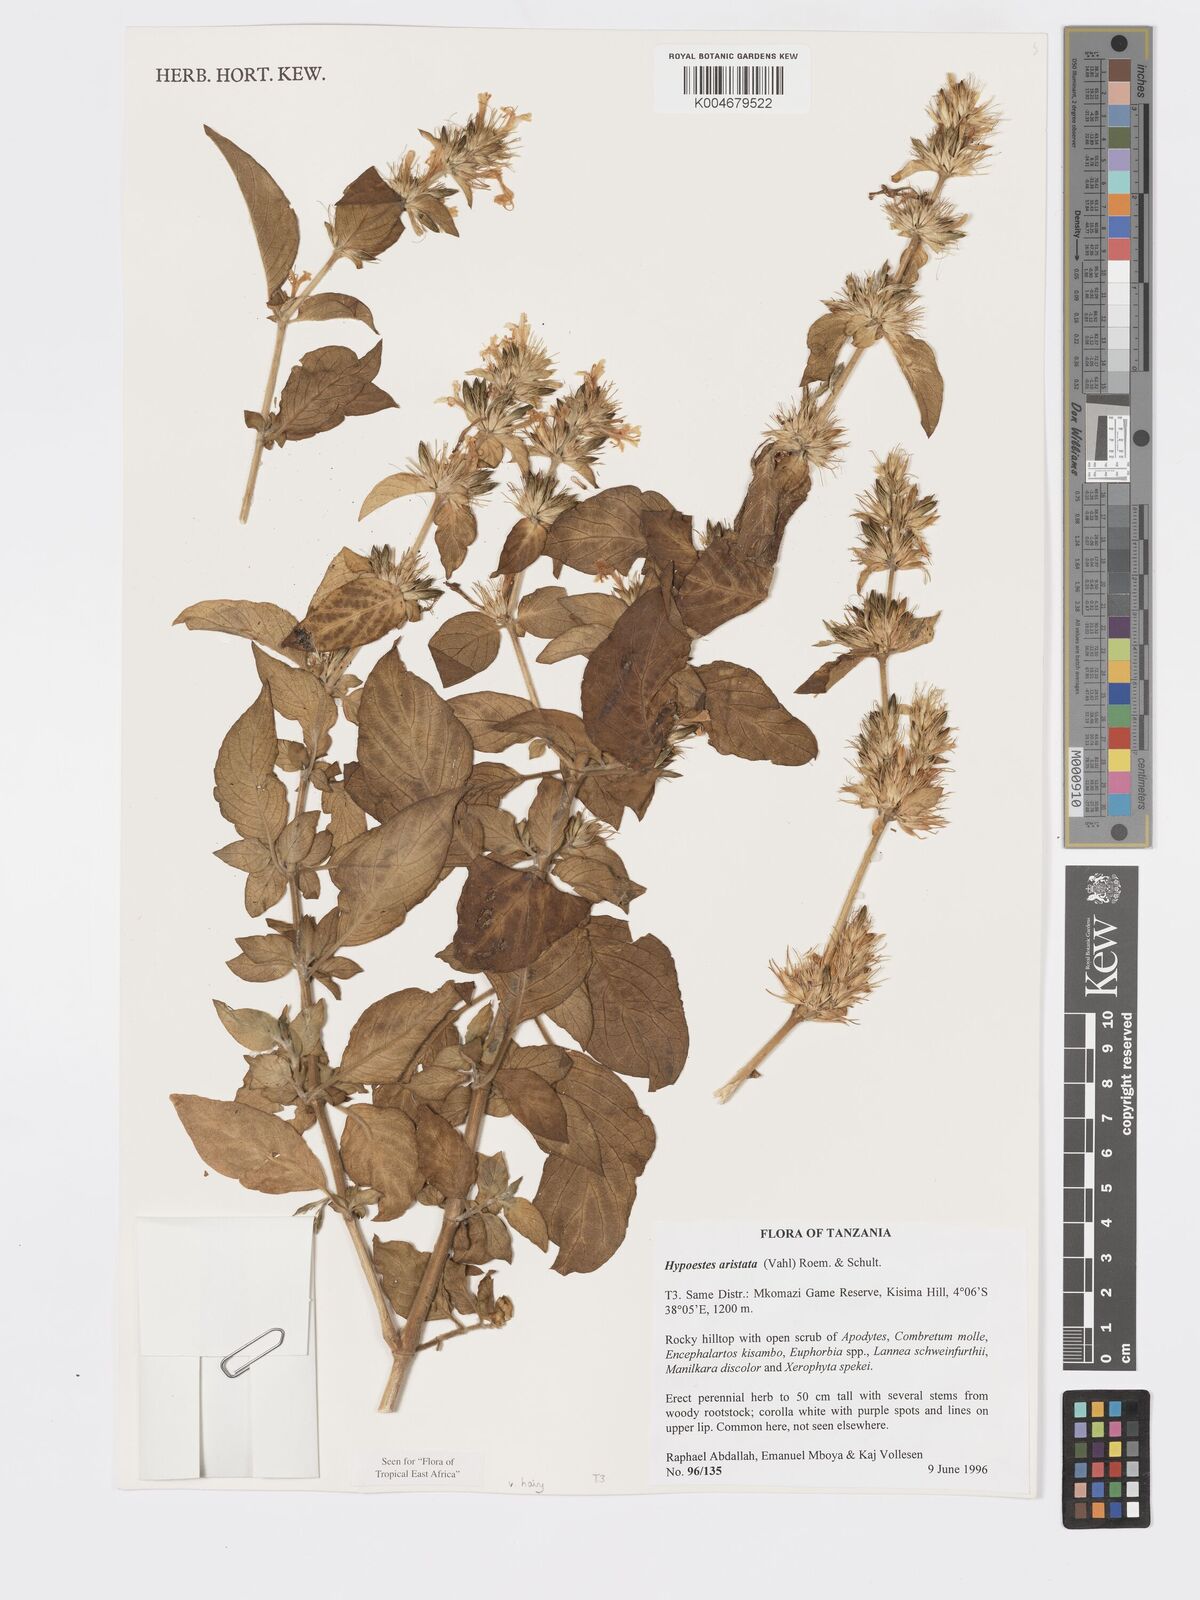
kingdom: Plantae
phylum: Tracheophyta
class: Magnoliopsida
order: Lamiales
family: Acanthaceae
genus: Hypoestes
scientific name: Hypoestes aristata
